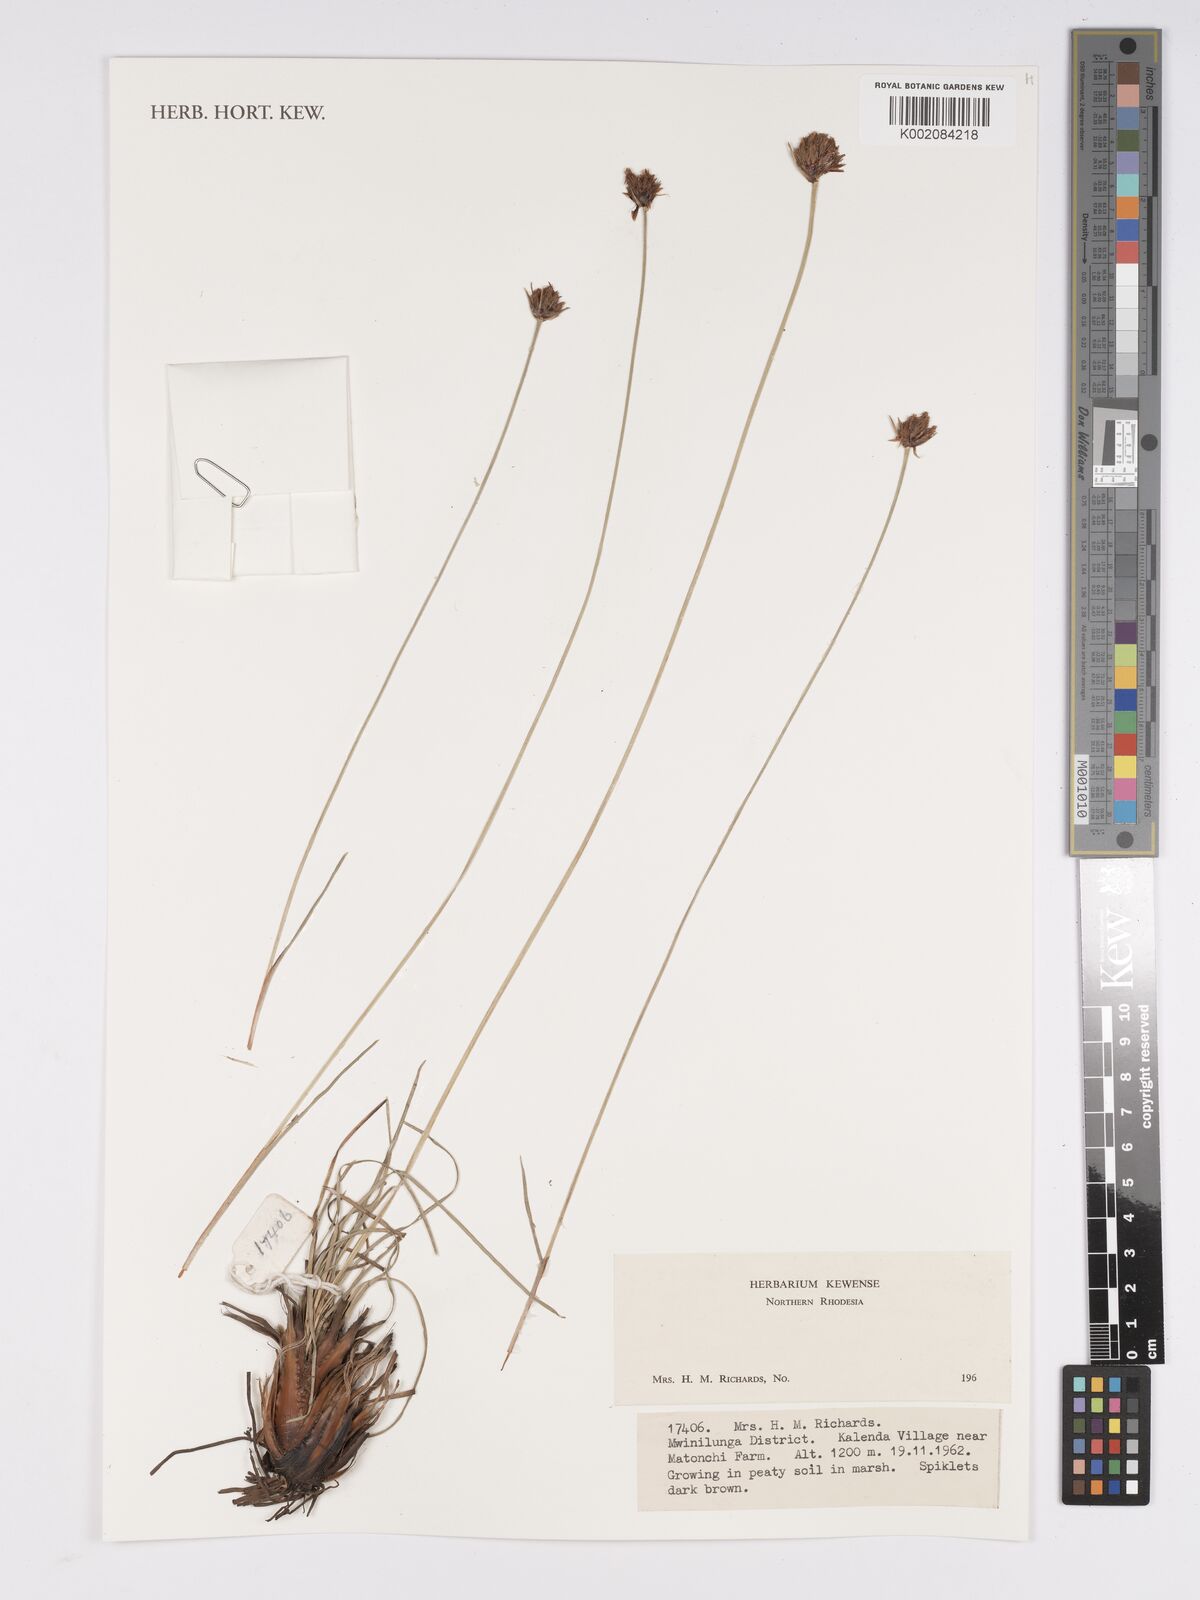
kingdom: Plantae
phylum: Tracheophyta
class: Liliopsida
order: Poales
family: Cyperaceae
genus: Bulbostylis
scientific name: Bulbostylis
